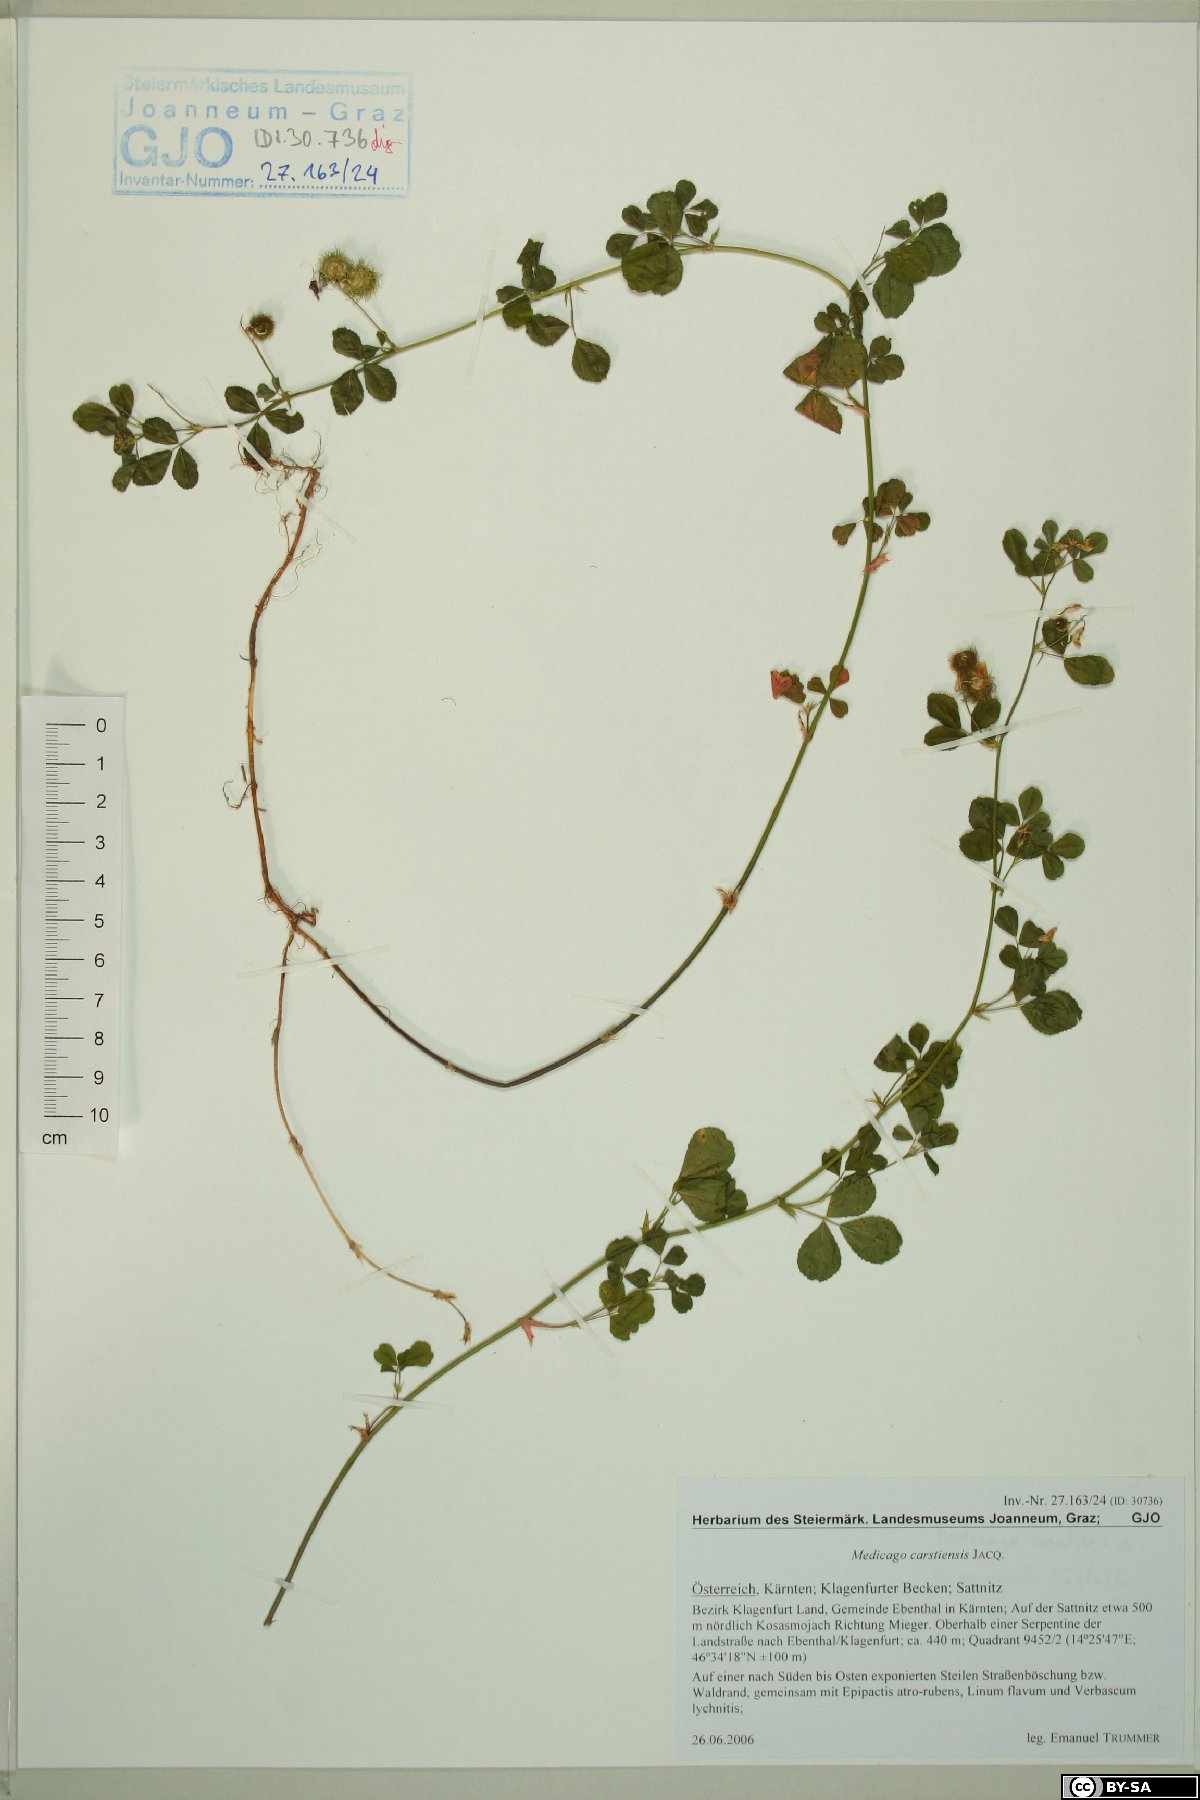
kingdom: Plantae
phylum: Tracheophyta
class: Magnoliopsida
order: Fabales
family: Fabaceae
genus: Medicago
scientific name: Medicago carstiensis
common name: Creeping-rooted medic
